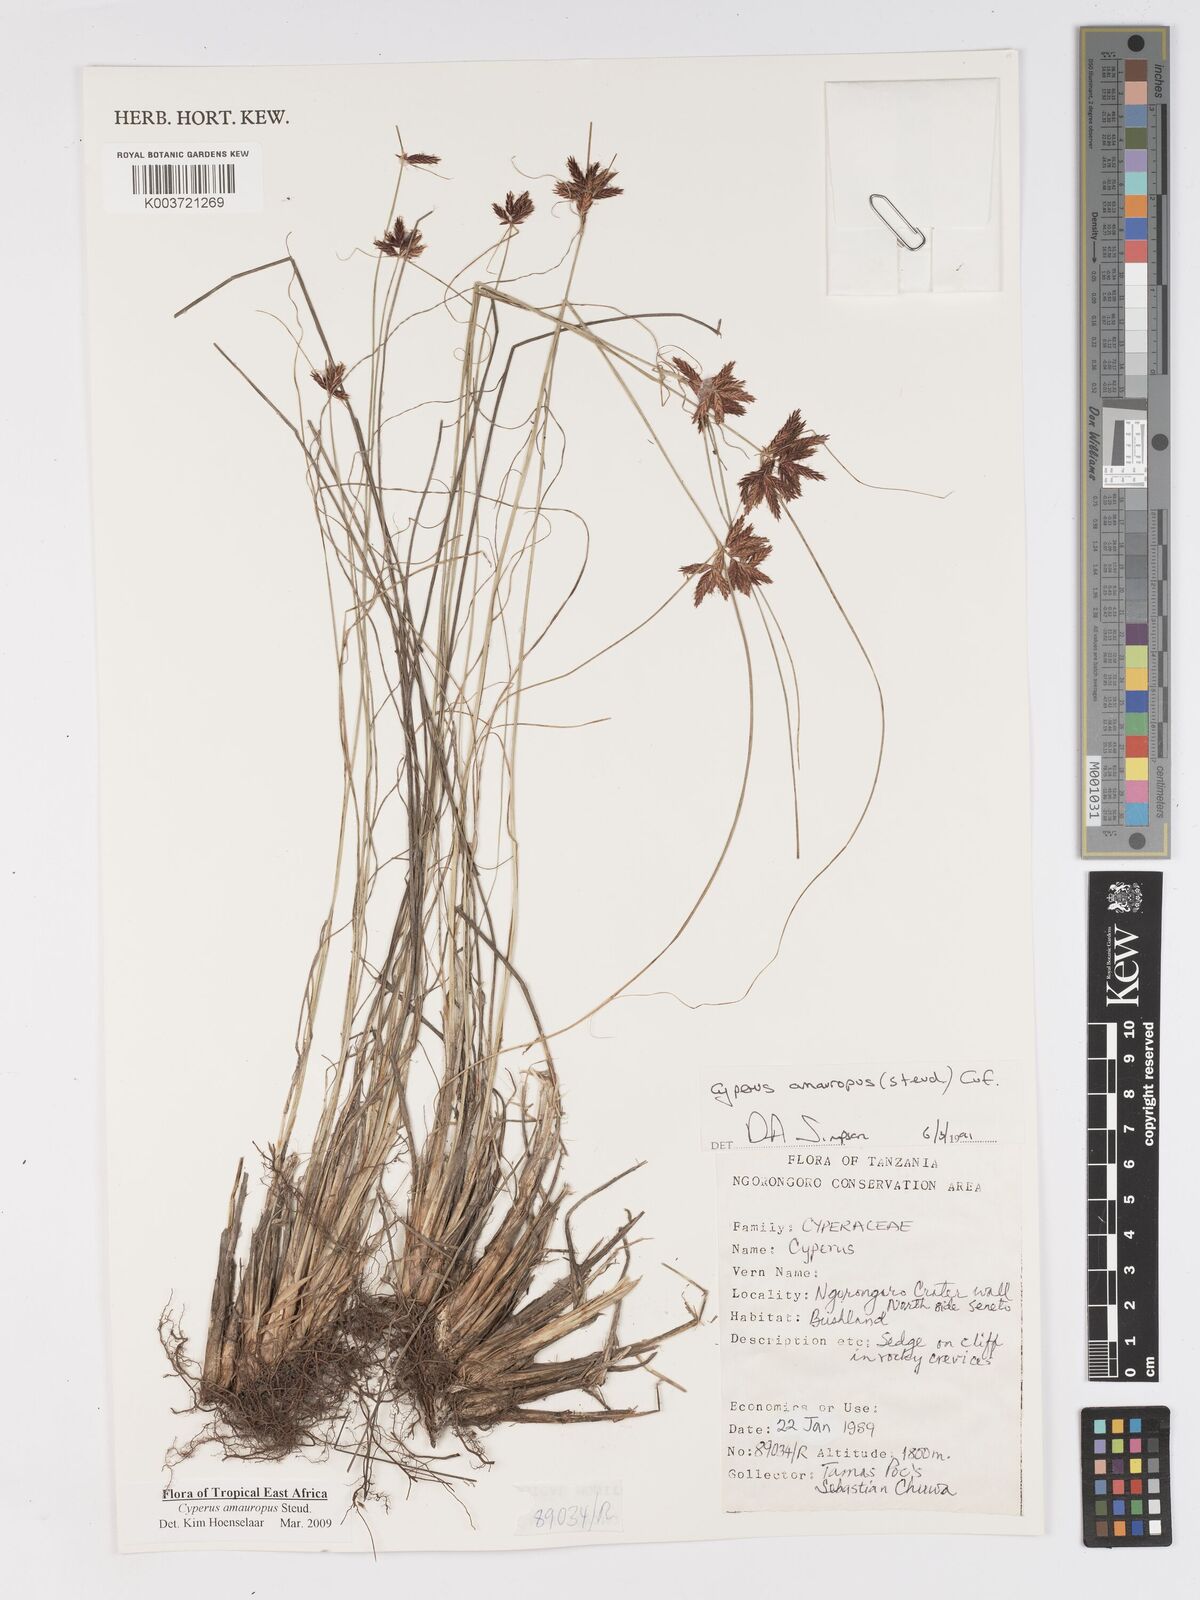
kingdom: Plantae
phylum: Tracheophyta
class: Liliopsida
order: Poales
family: Cyperaceae
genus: Cyperus
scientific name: Cyperus amauropus
